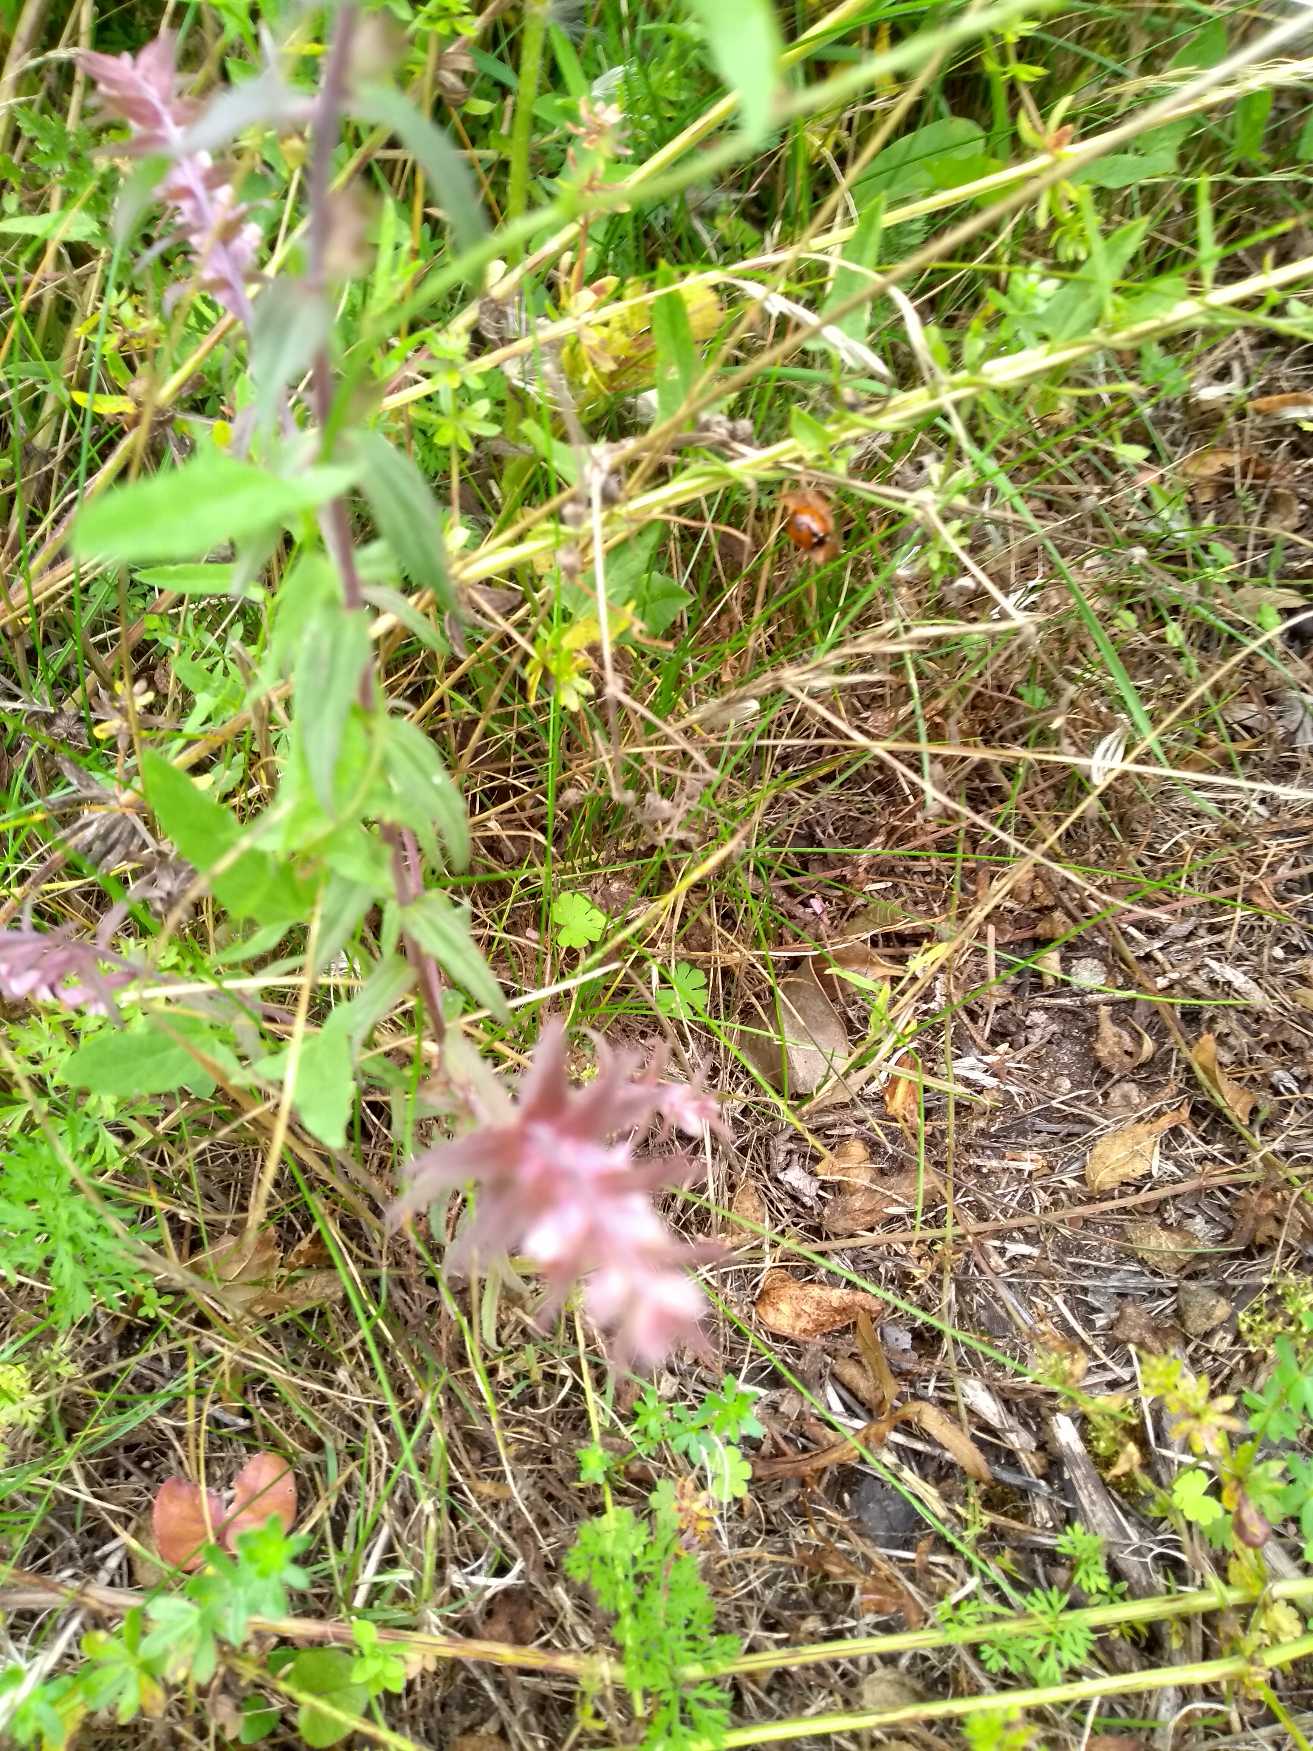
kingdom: Plantae
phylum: Tracheophyta
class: Magnoliopsida
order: Lamiales
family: Orobanchaceae
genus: Odontites
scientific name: Odontites vernus
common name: Mark-rødtop
